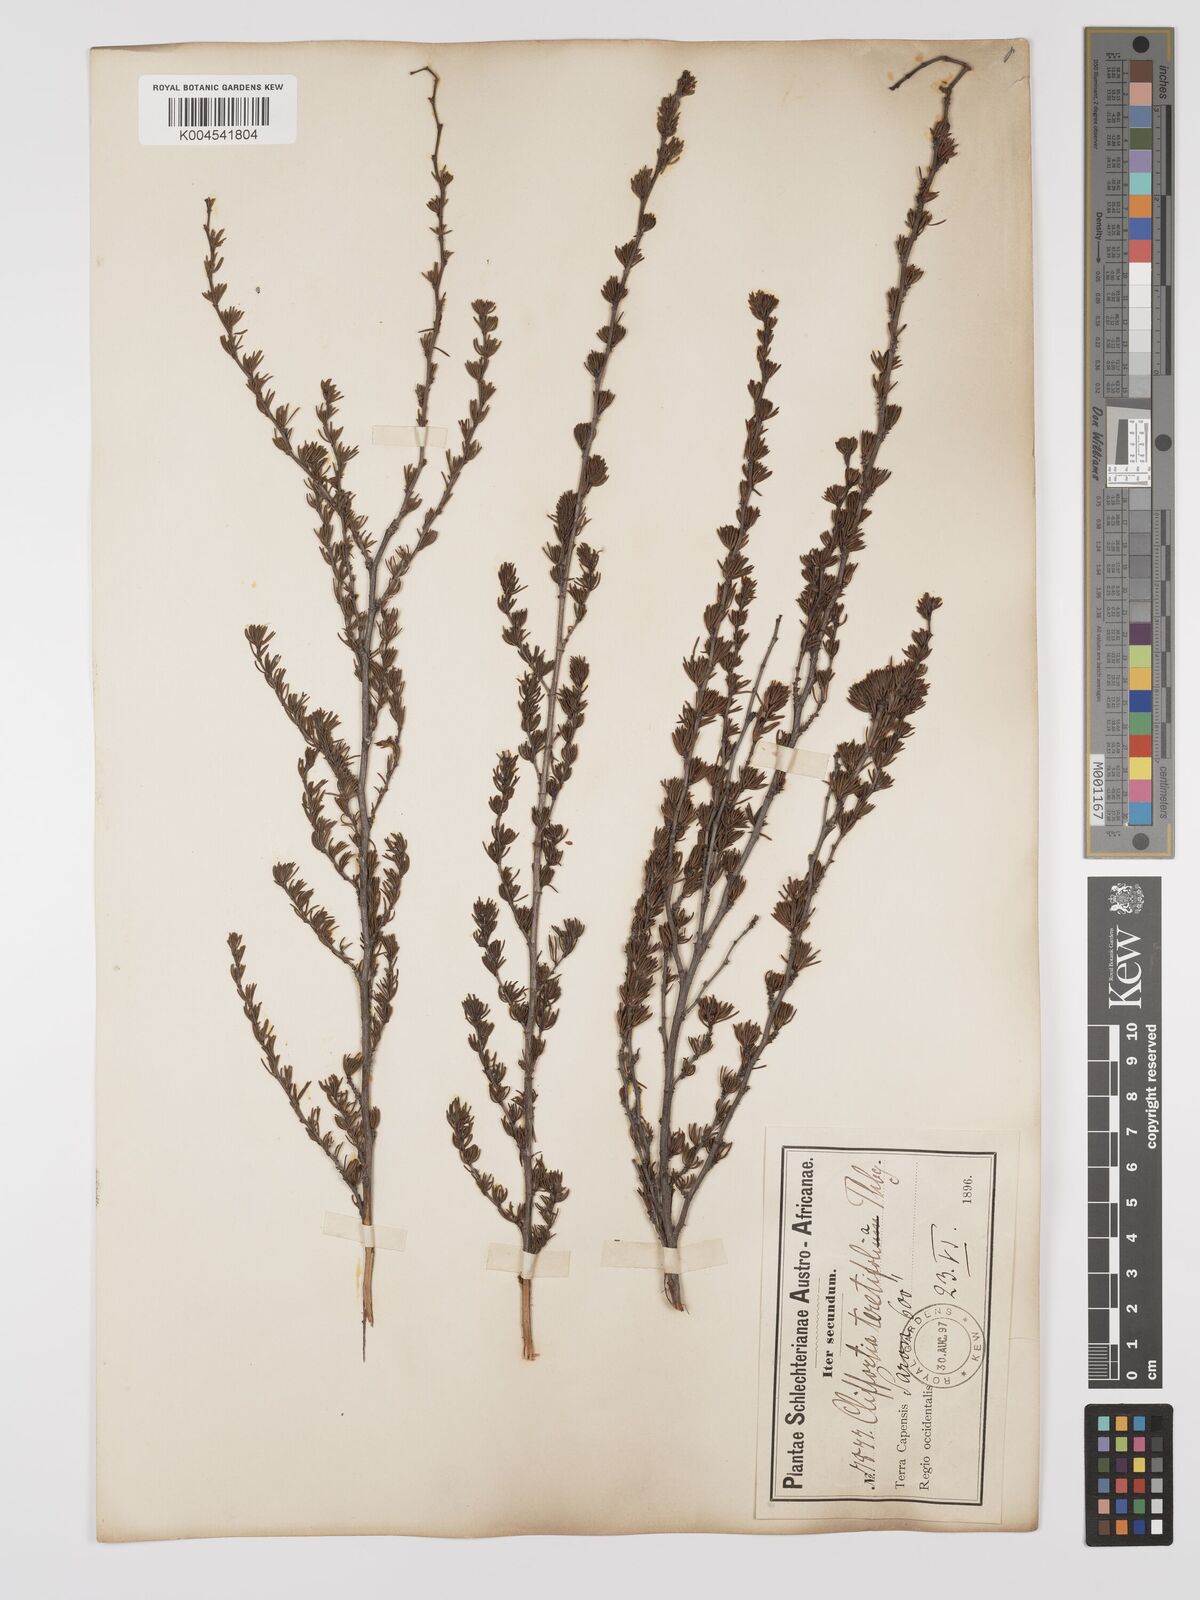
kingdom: Plantae
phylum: Tracheophyta
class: Magnoliopsida
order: Rosales
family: Rosaceae
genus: Cliffortia
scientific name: Cliffortia teretifolia
